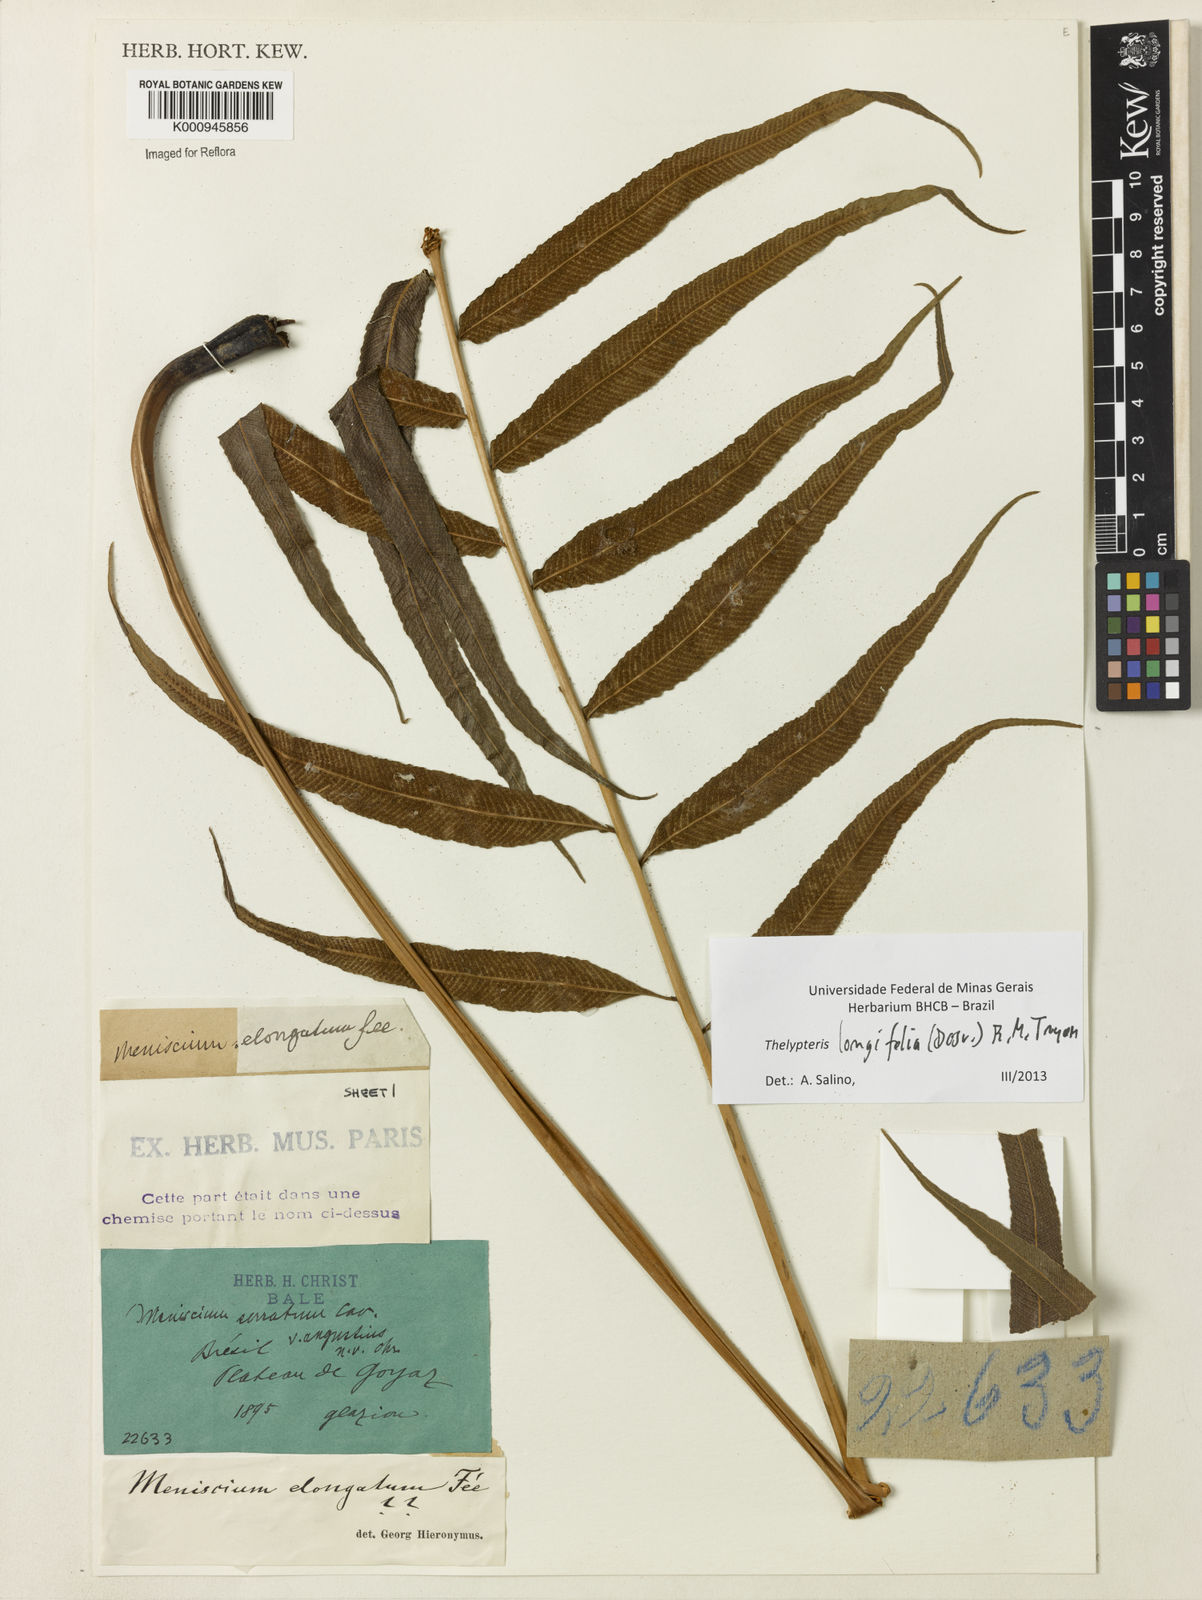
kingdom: Plantae
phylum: Tracheophyta
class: Polypodiopsida
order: Polypodiales
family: Thelypteridaceae
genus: Meniscium
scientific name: Meniscium longifolium
